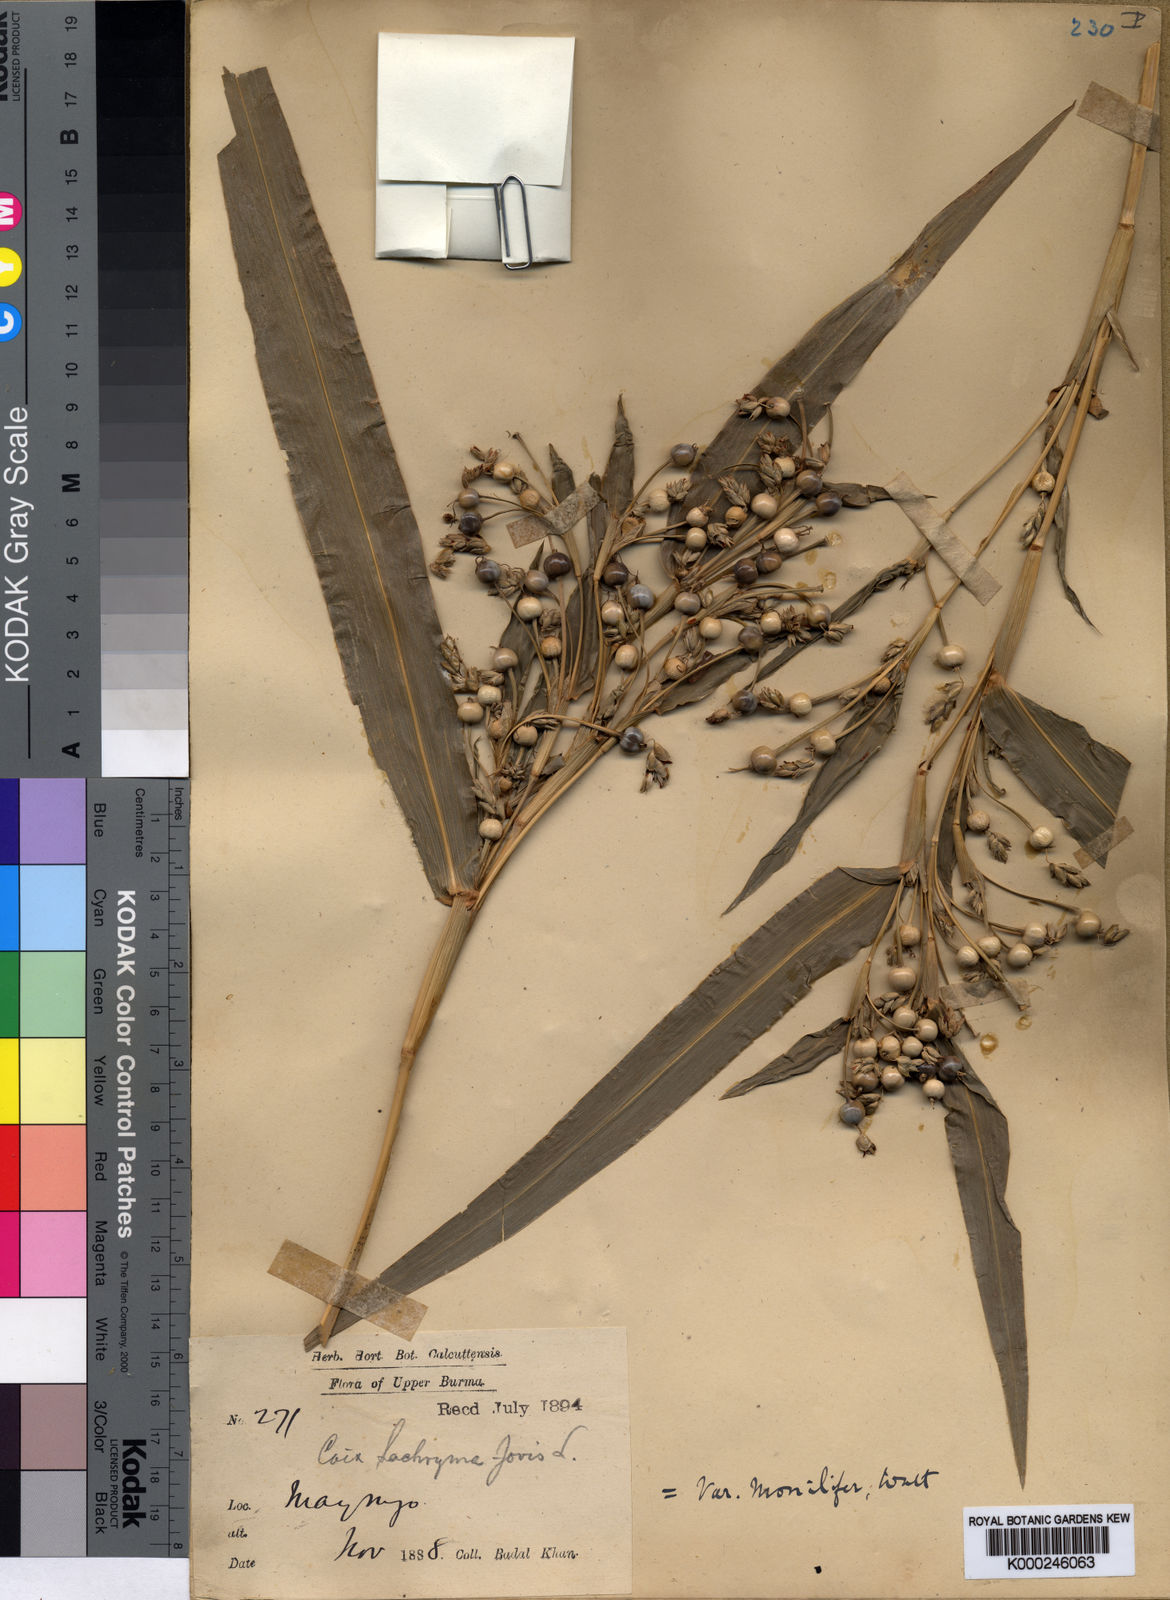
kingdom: Plantae
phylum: Tracheophyta
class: Liliopsida
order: Poales
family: Poaceae
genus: Coix
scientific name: Coix lacryma-jobi
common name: Job's tears
